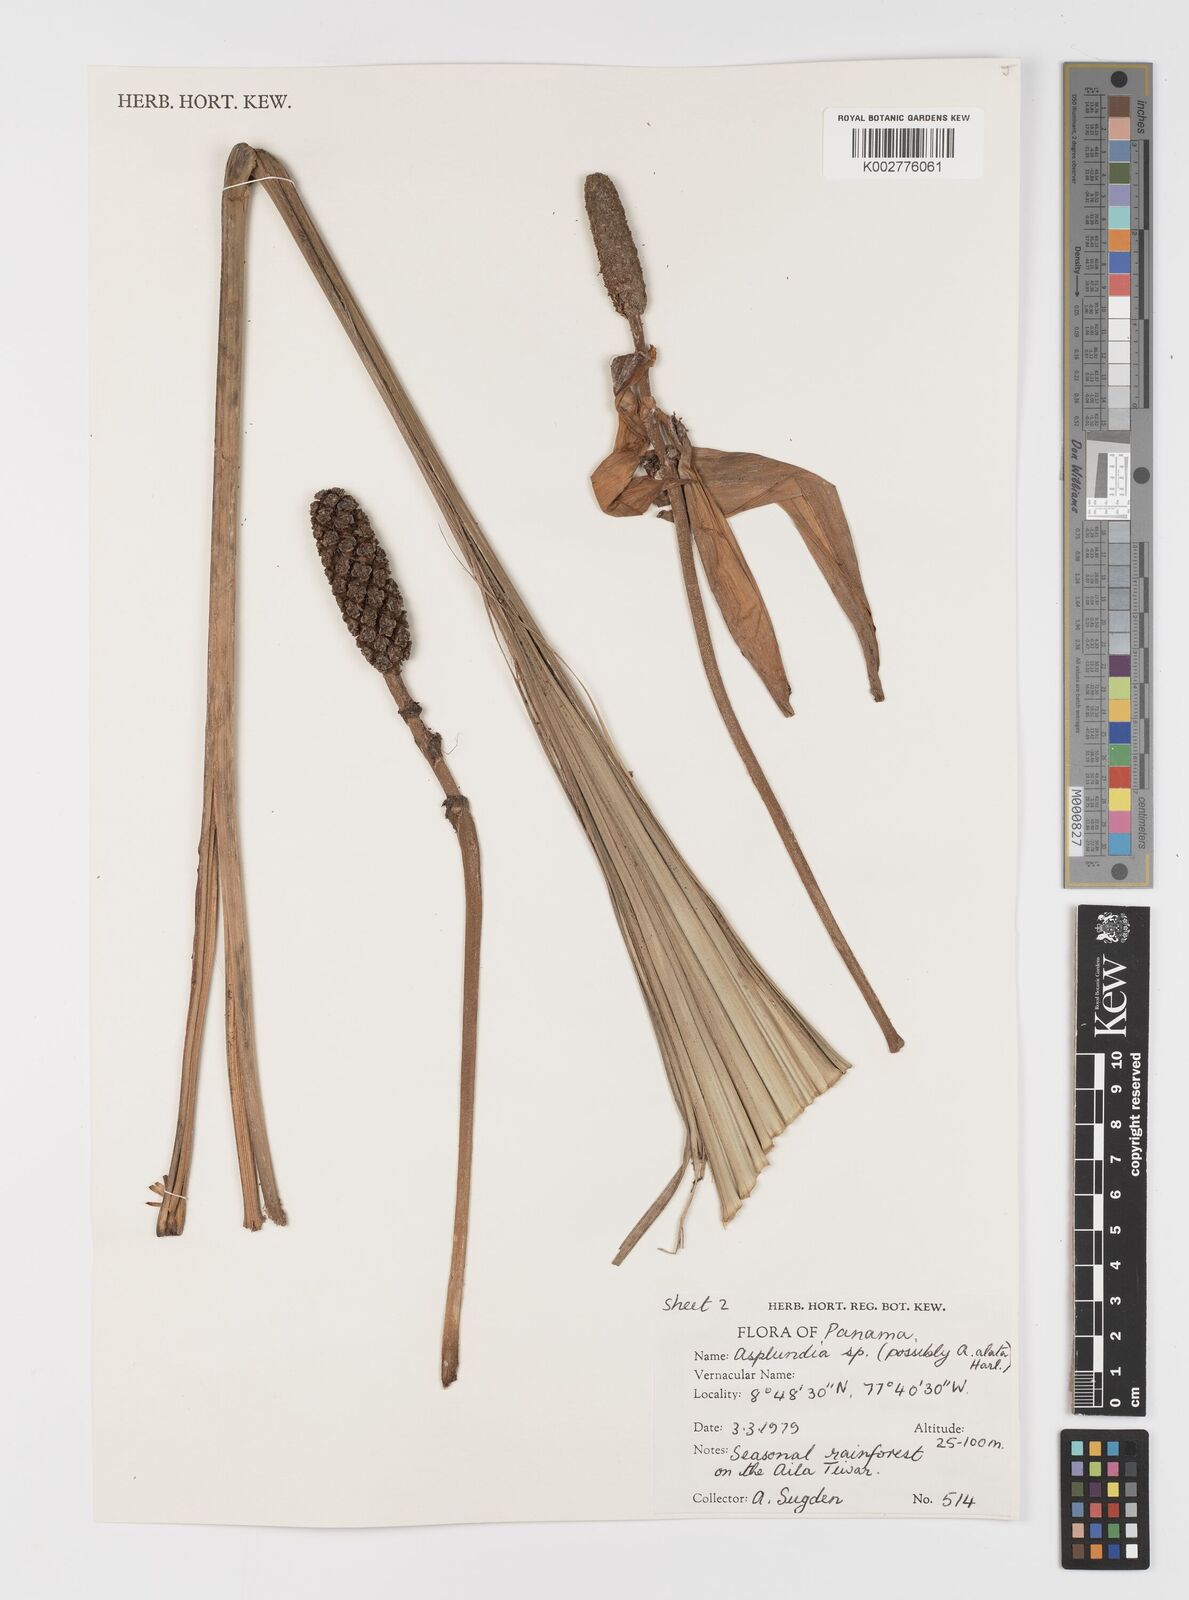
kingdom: Plantae
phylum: Tracheophyta
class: Liliopsida
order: Pandanales
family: Cyclanthaceae
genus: Asplundia
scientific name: Asplundia
